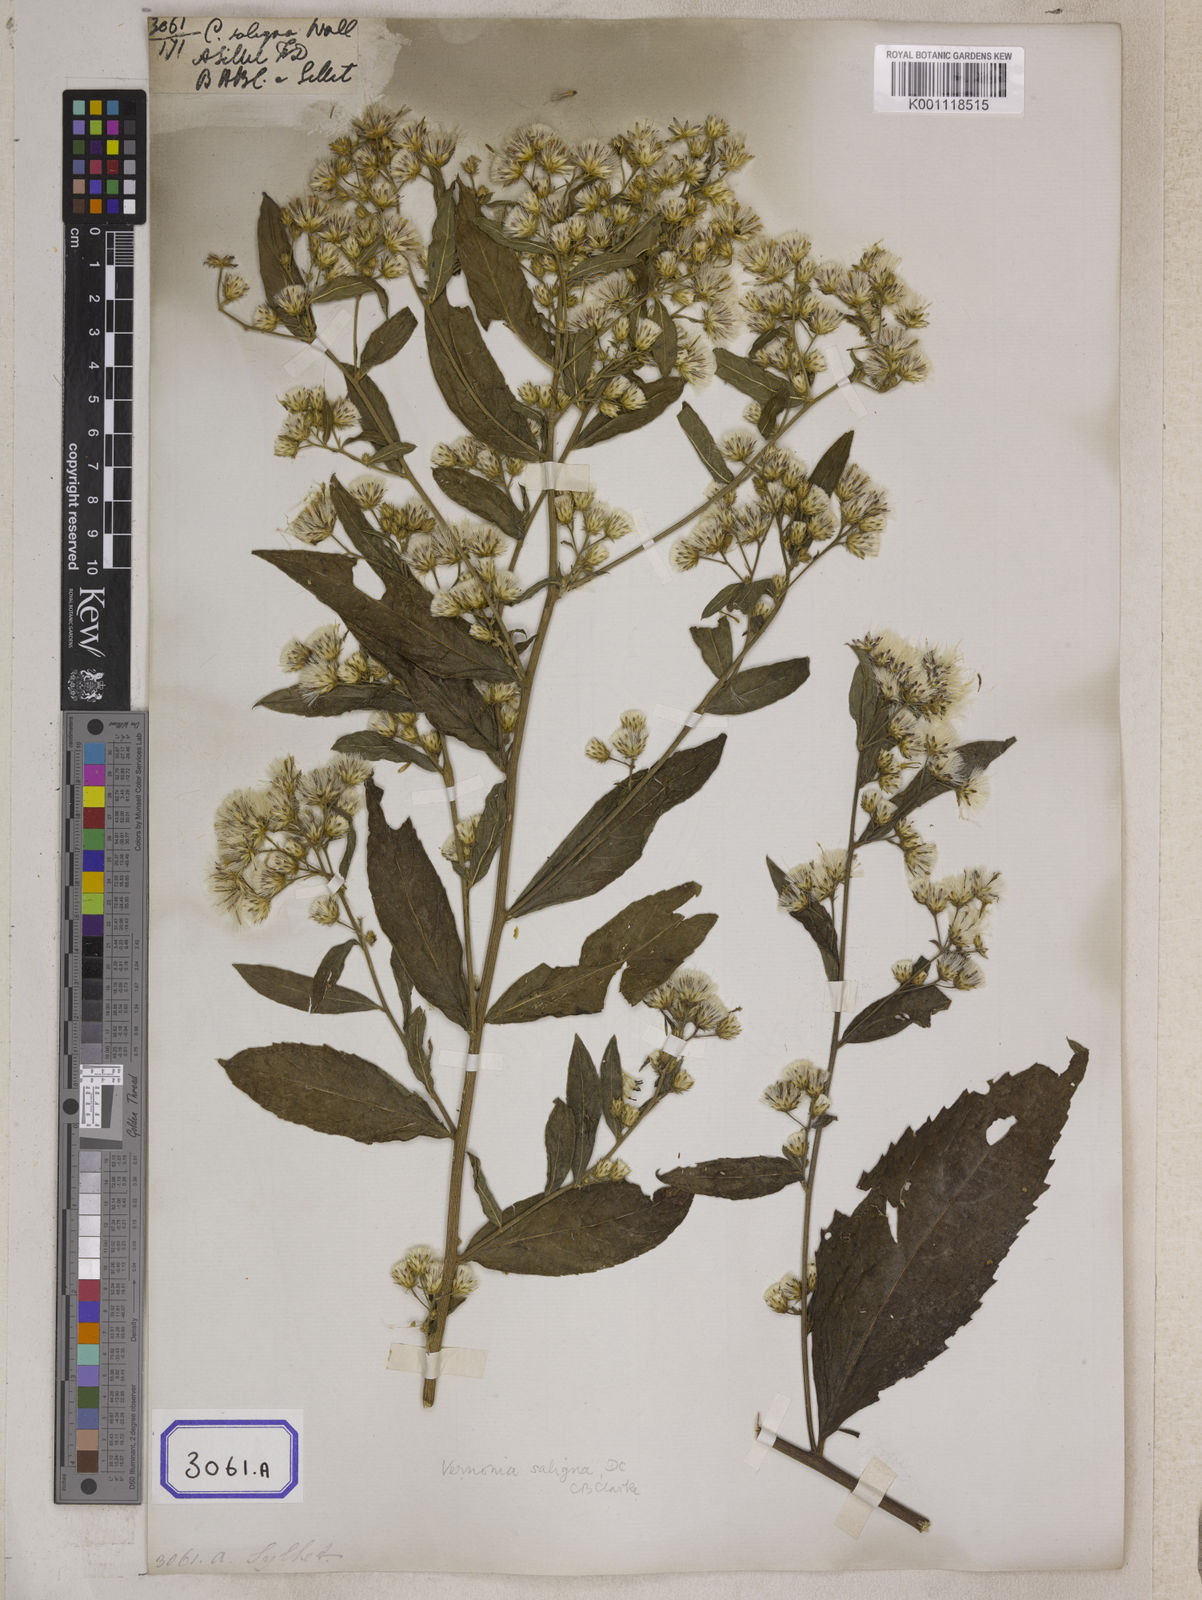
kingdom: Plantae
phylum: Tracheophyta
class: Magnoliopsida
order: Asterales
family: Asteraceae
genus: Acilepis
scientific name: Acilepis saligna
